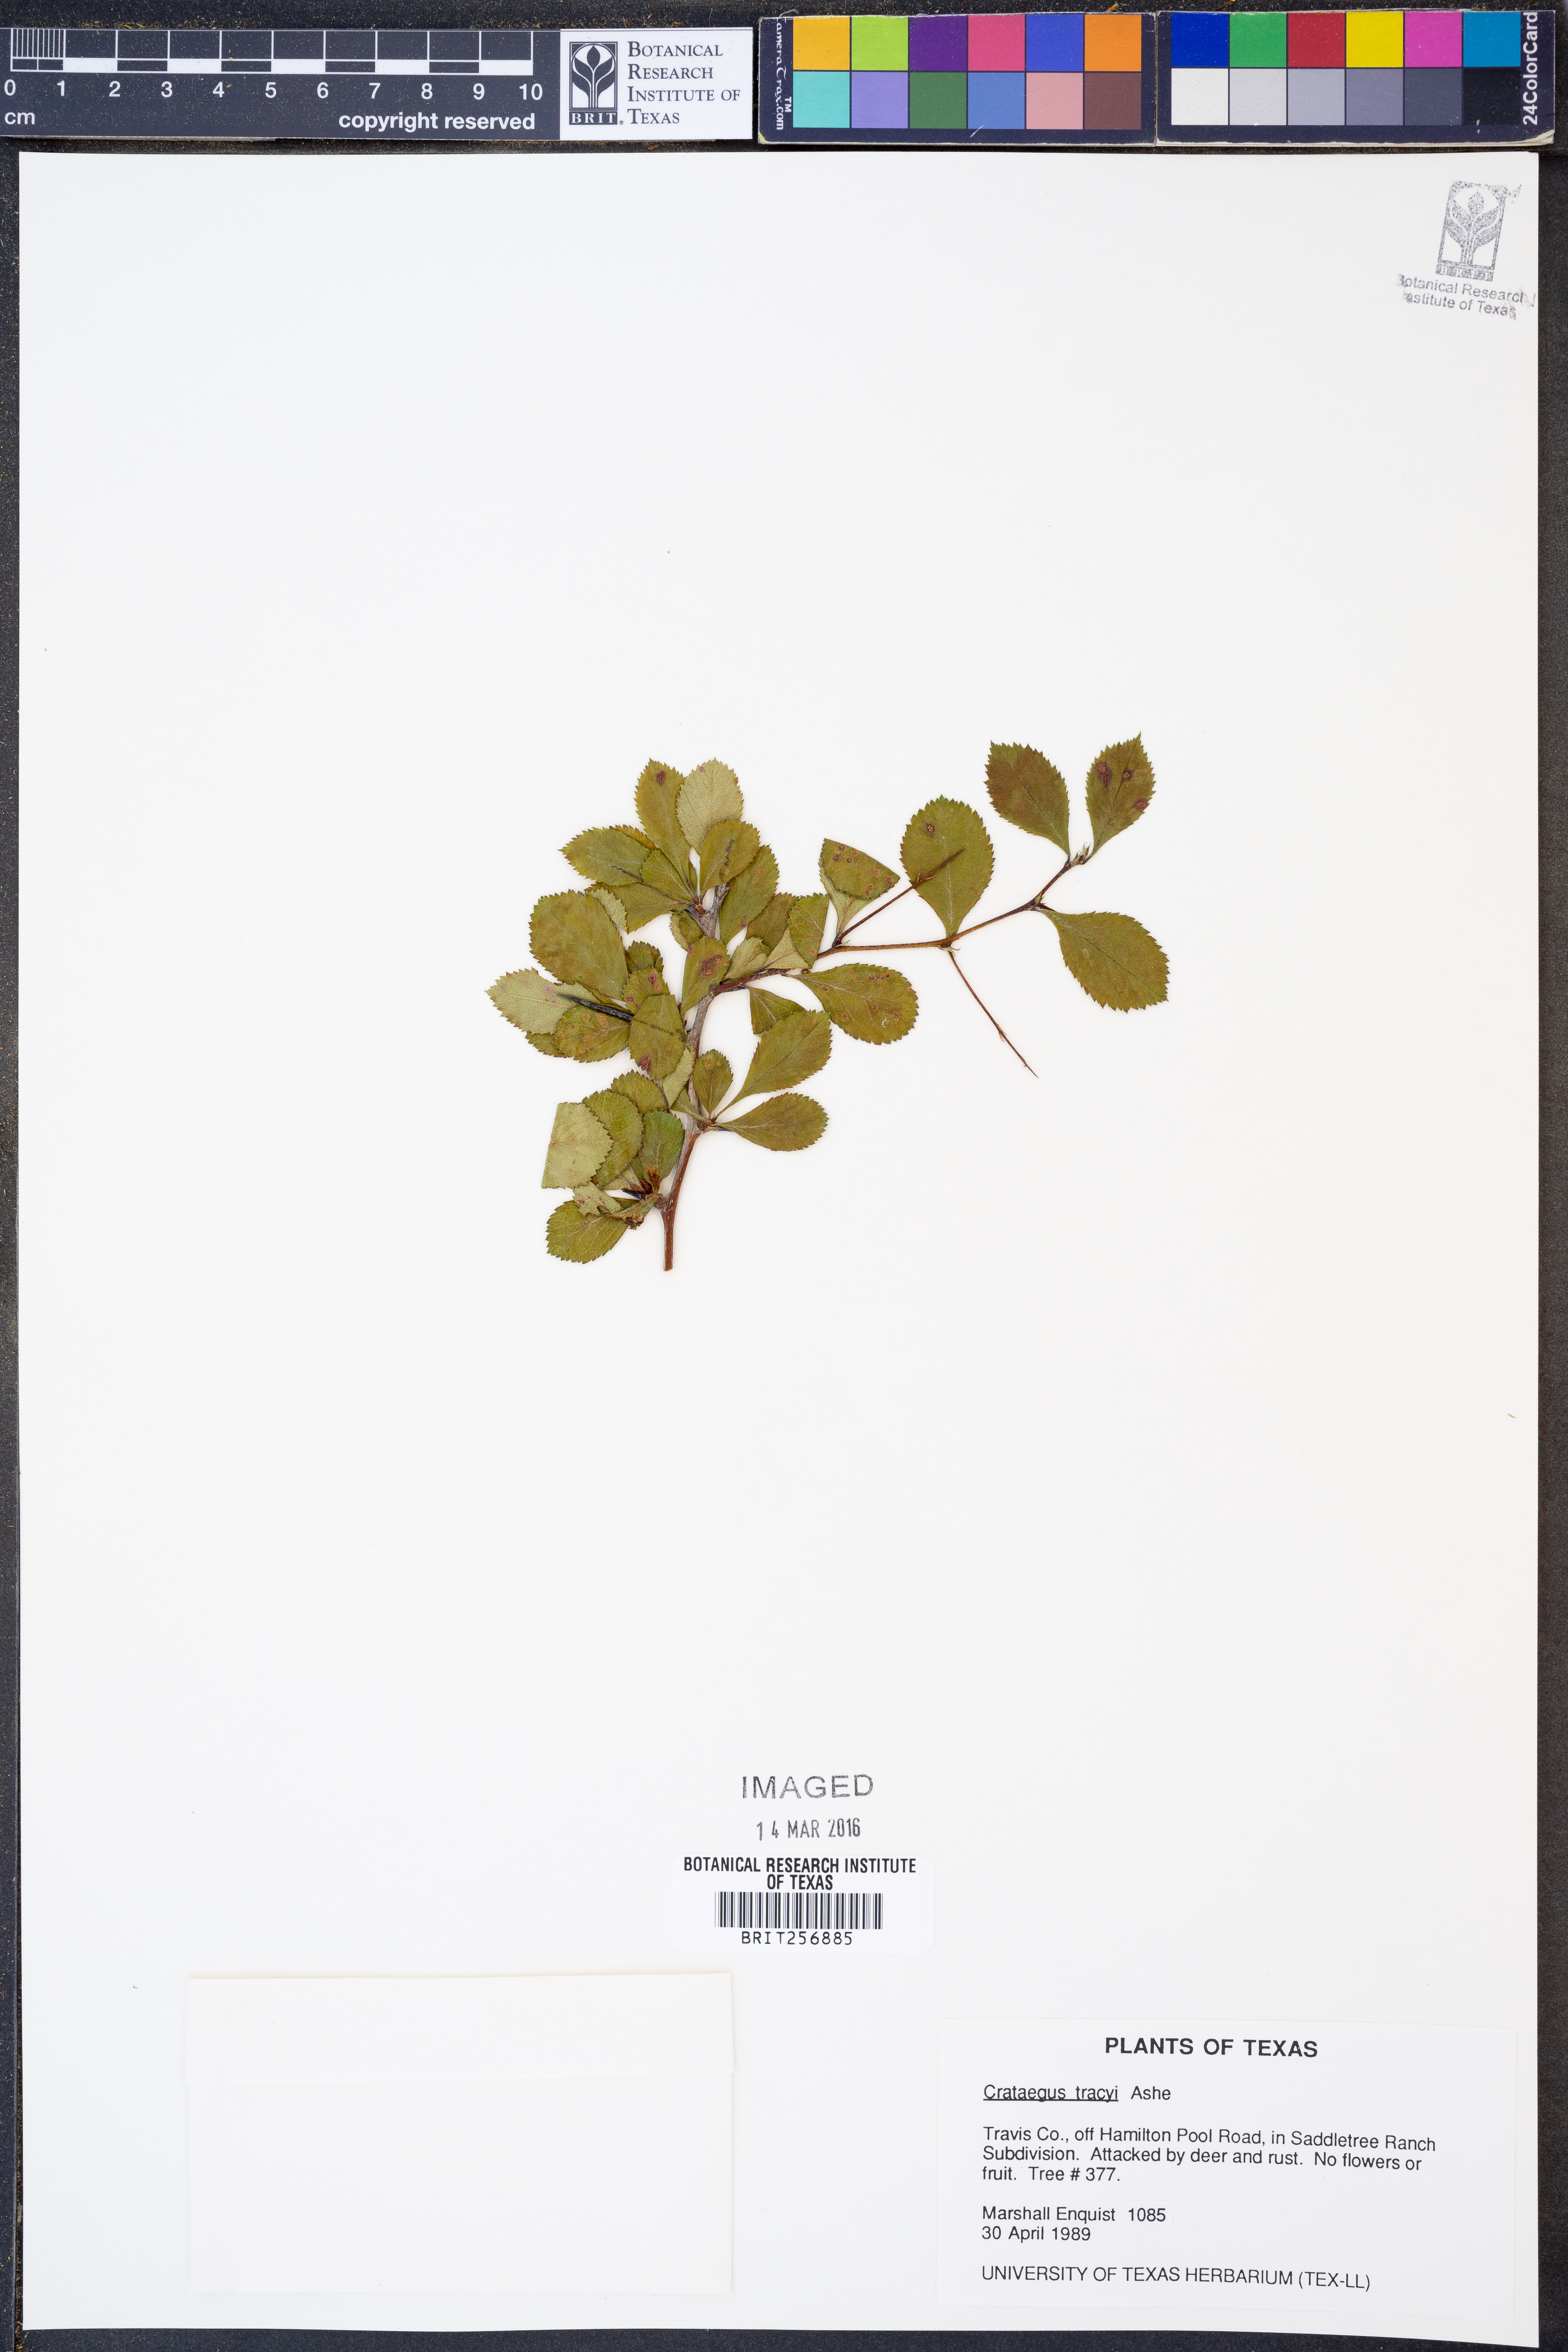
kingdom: Plantae
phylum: Tracheophyta
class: Magnoliopsida
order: Rosales
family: Rosaceae
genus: Crataegus
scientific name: Crataegus tracyi
